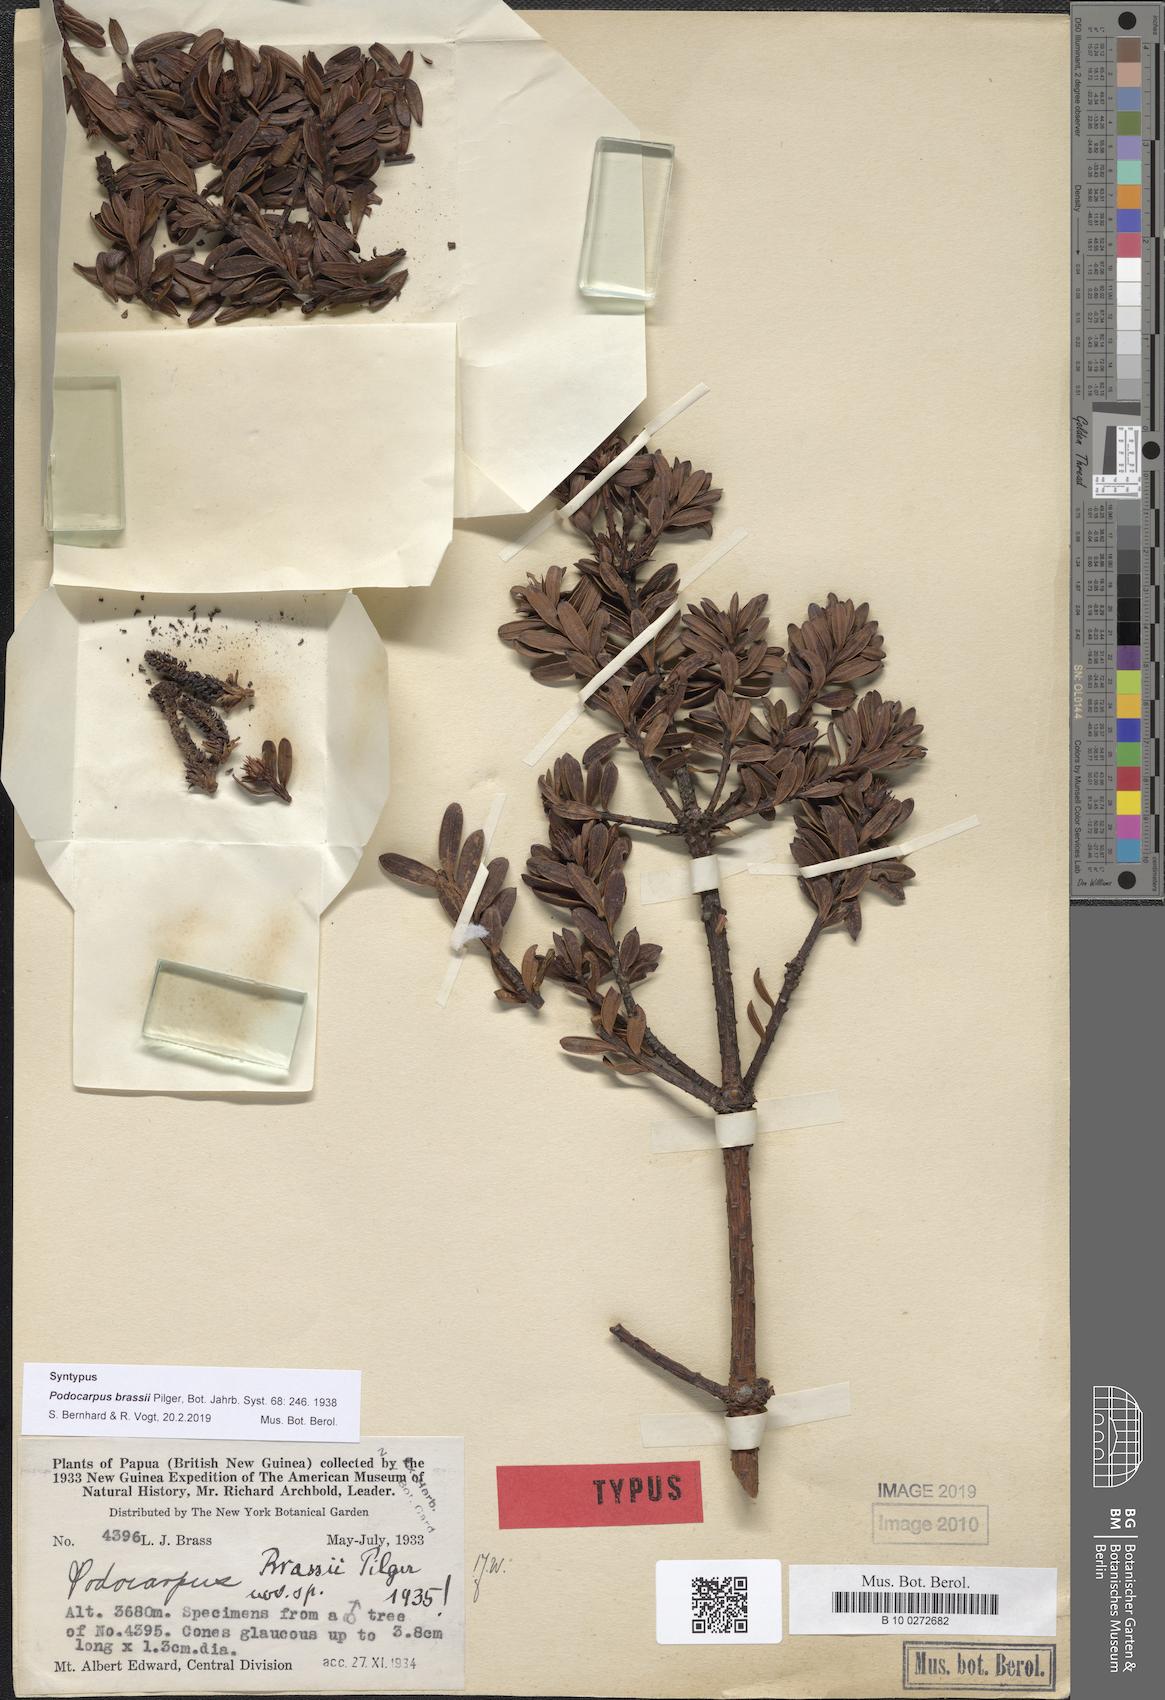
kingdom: Plantae
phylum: Tracheophyta
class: Pinopsida
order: Pinales
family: Podocarpaceae
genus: Podocarpus
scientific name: Podocarpus brassii
